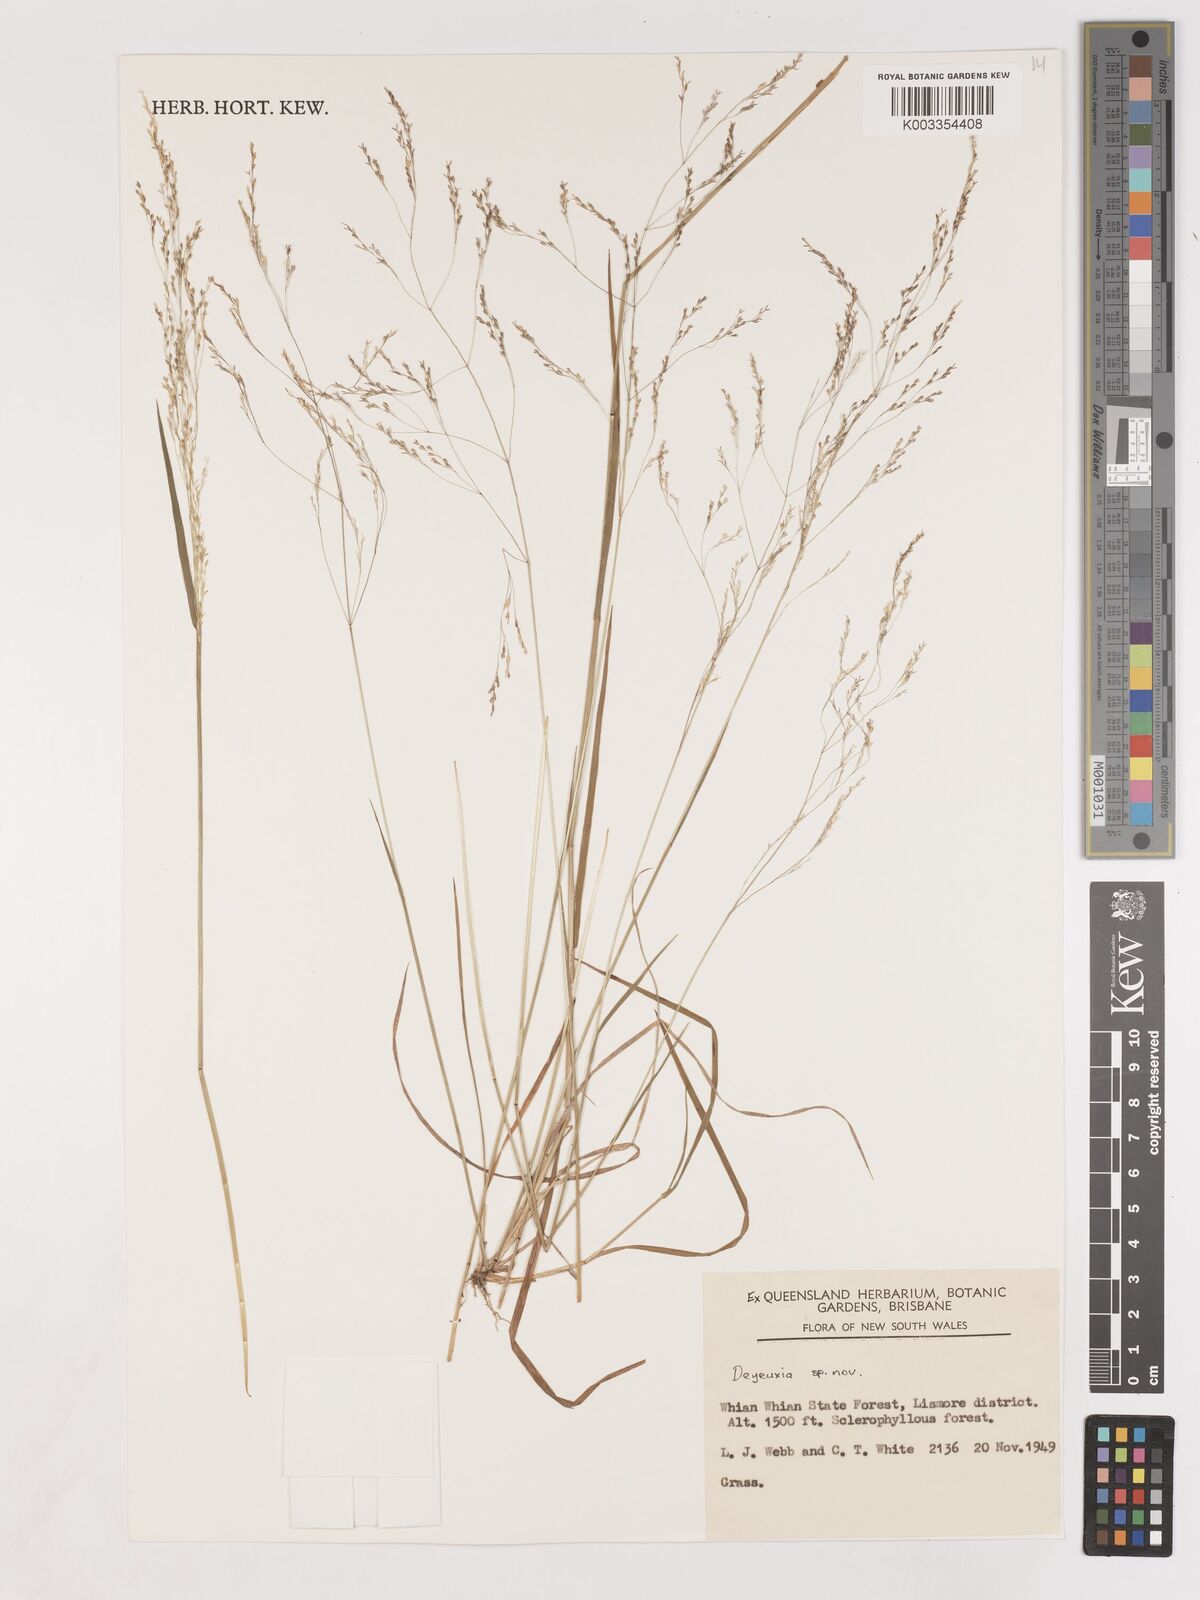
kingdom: Plantae
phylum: Tracheophyta
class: Liliopsida
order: Poales
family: Poaceae
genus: Calamagrostis
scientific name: Calamagrostis
